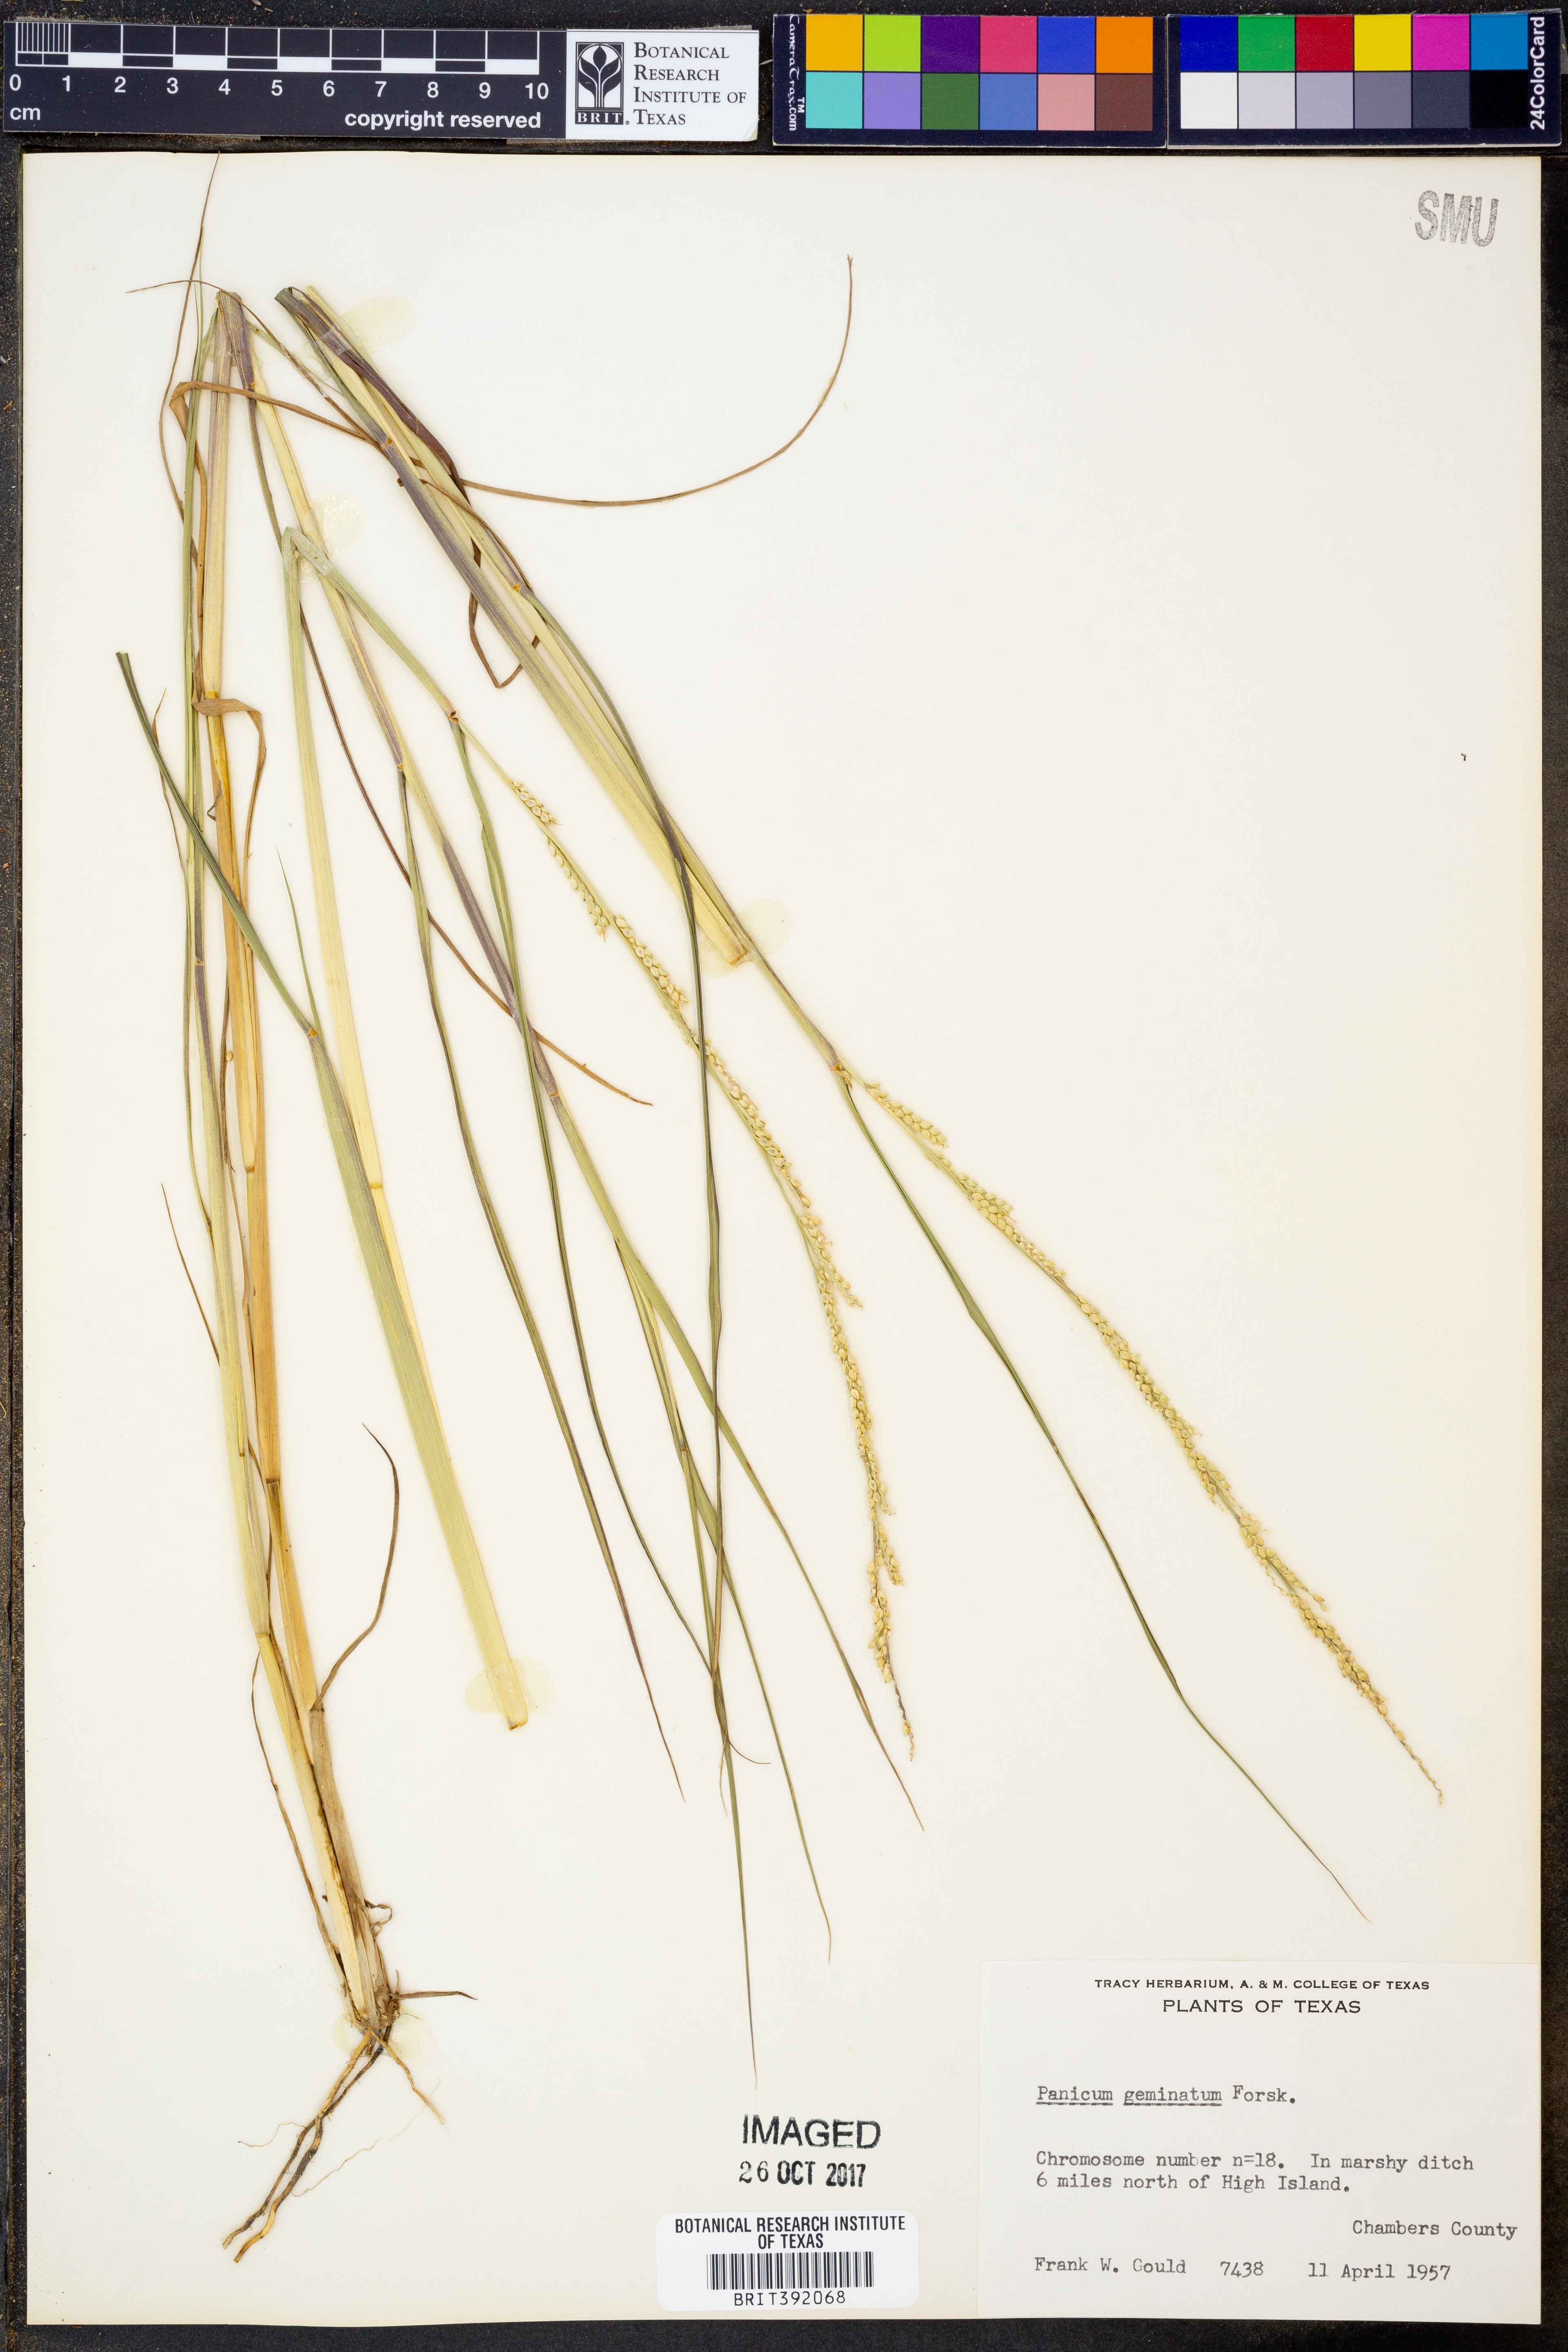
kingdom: Plantae
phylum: Tracheophyta
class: Liliopsida
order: Poales
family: Poaceae
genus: Setaria
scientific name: Setaria geminata
